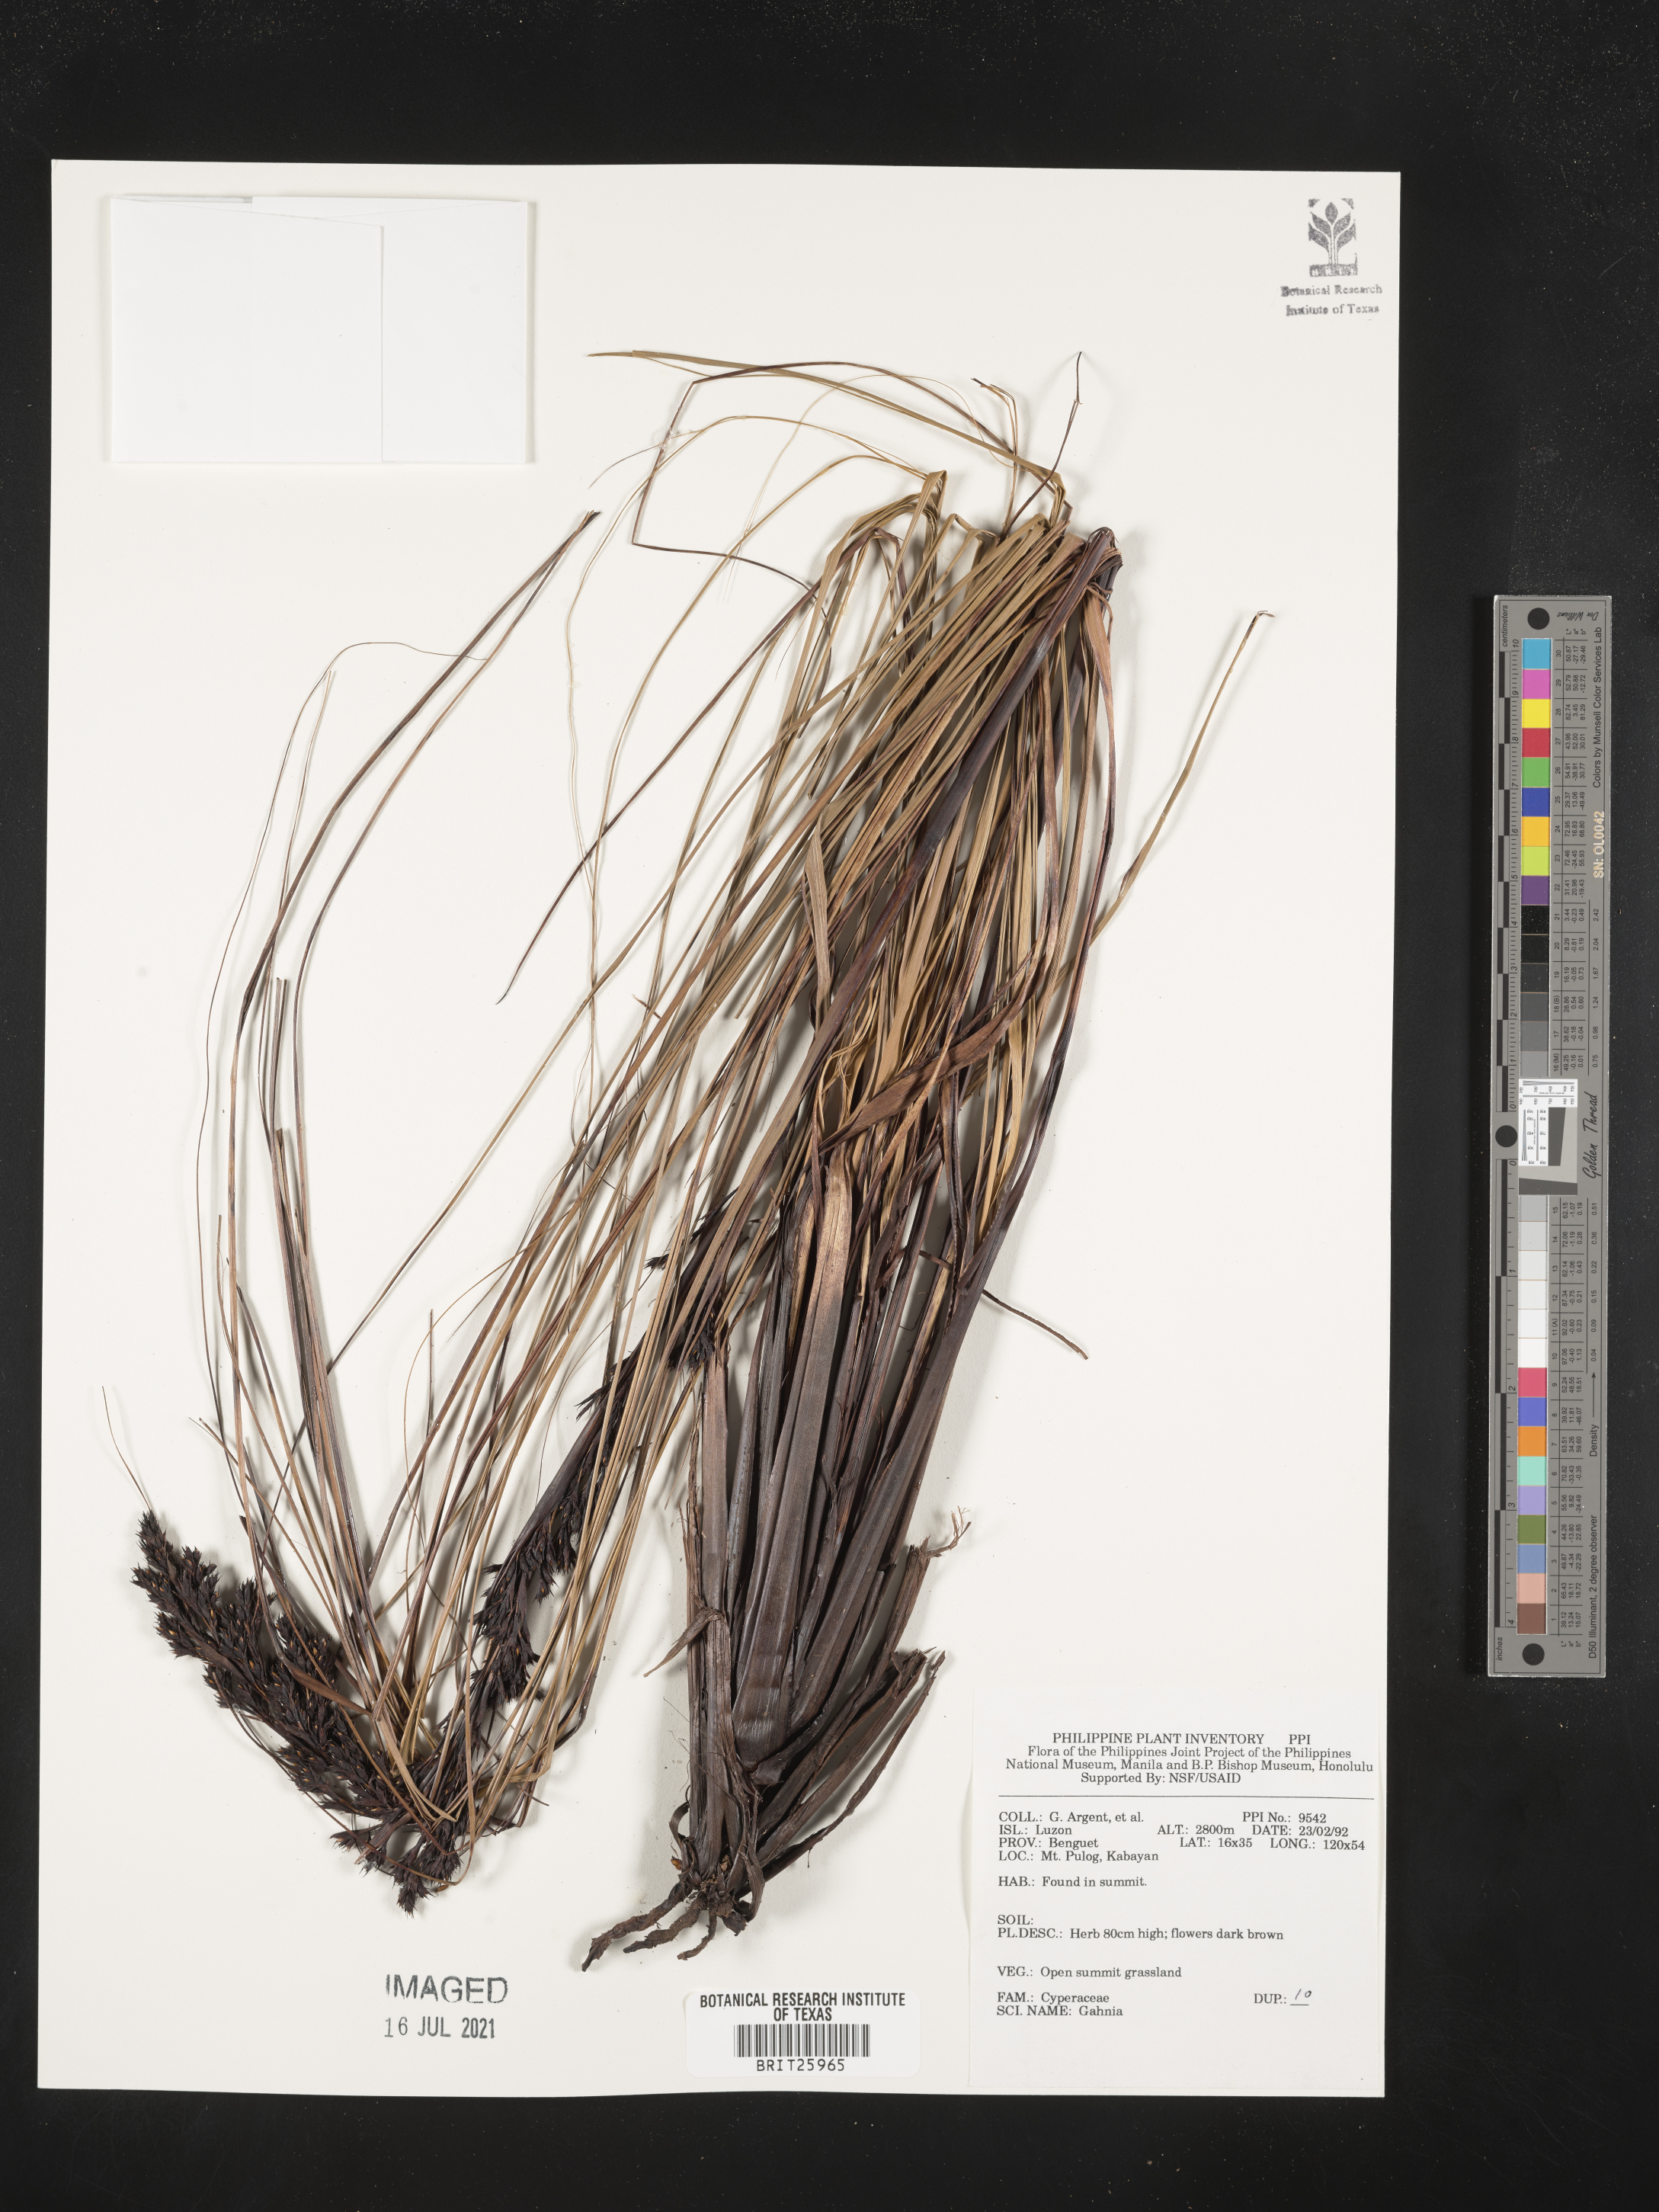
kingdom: Plantae
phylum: Tracheophyta
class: Liliopsida
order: Poales
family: Cyperaceae
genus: Gahnia
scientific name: Gahnia
